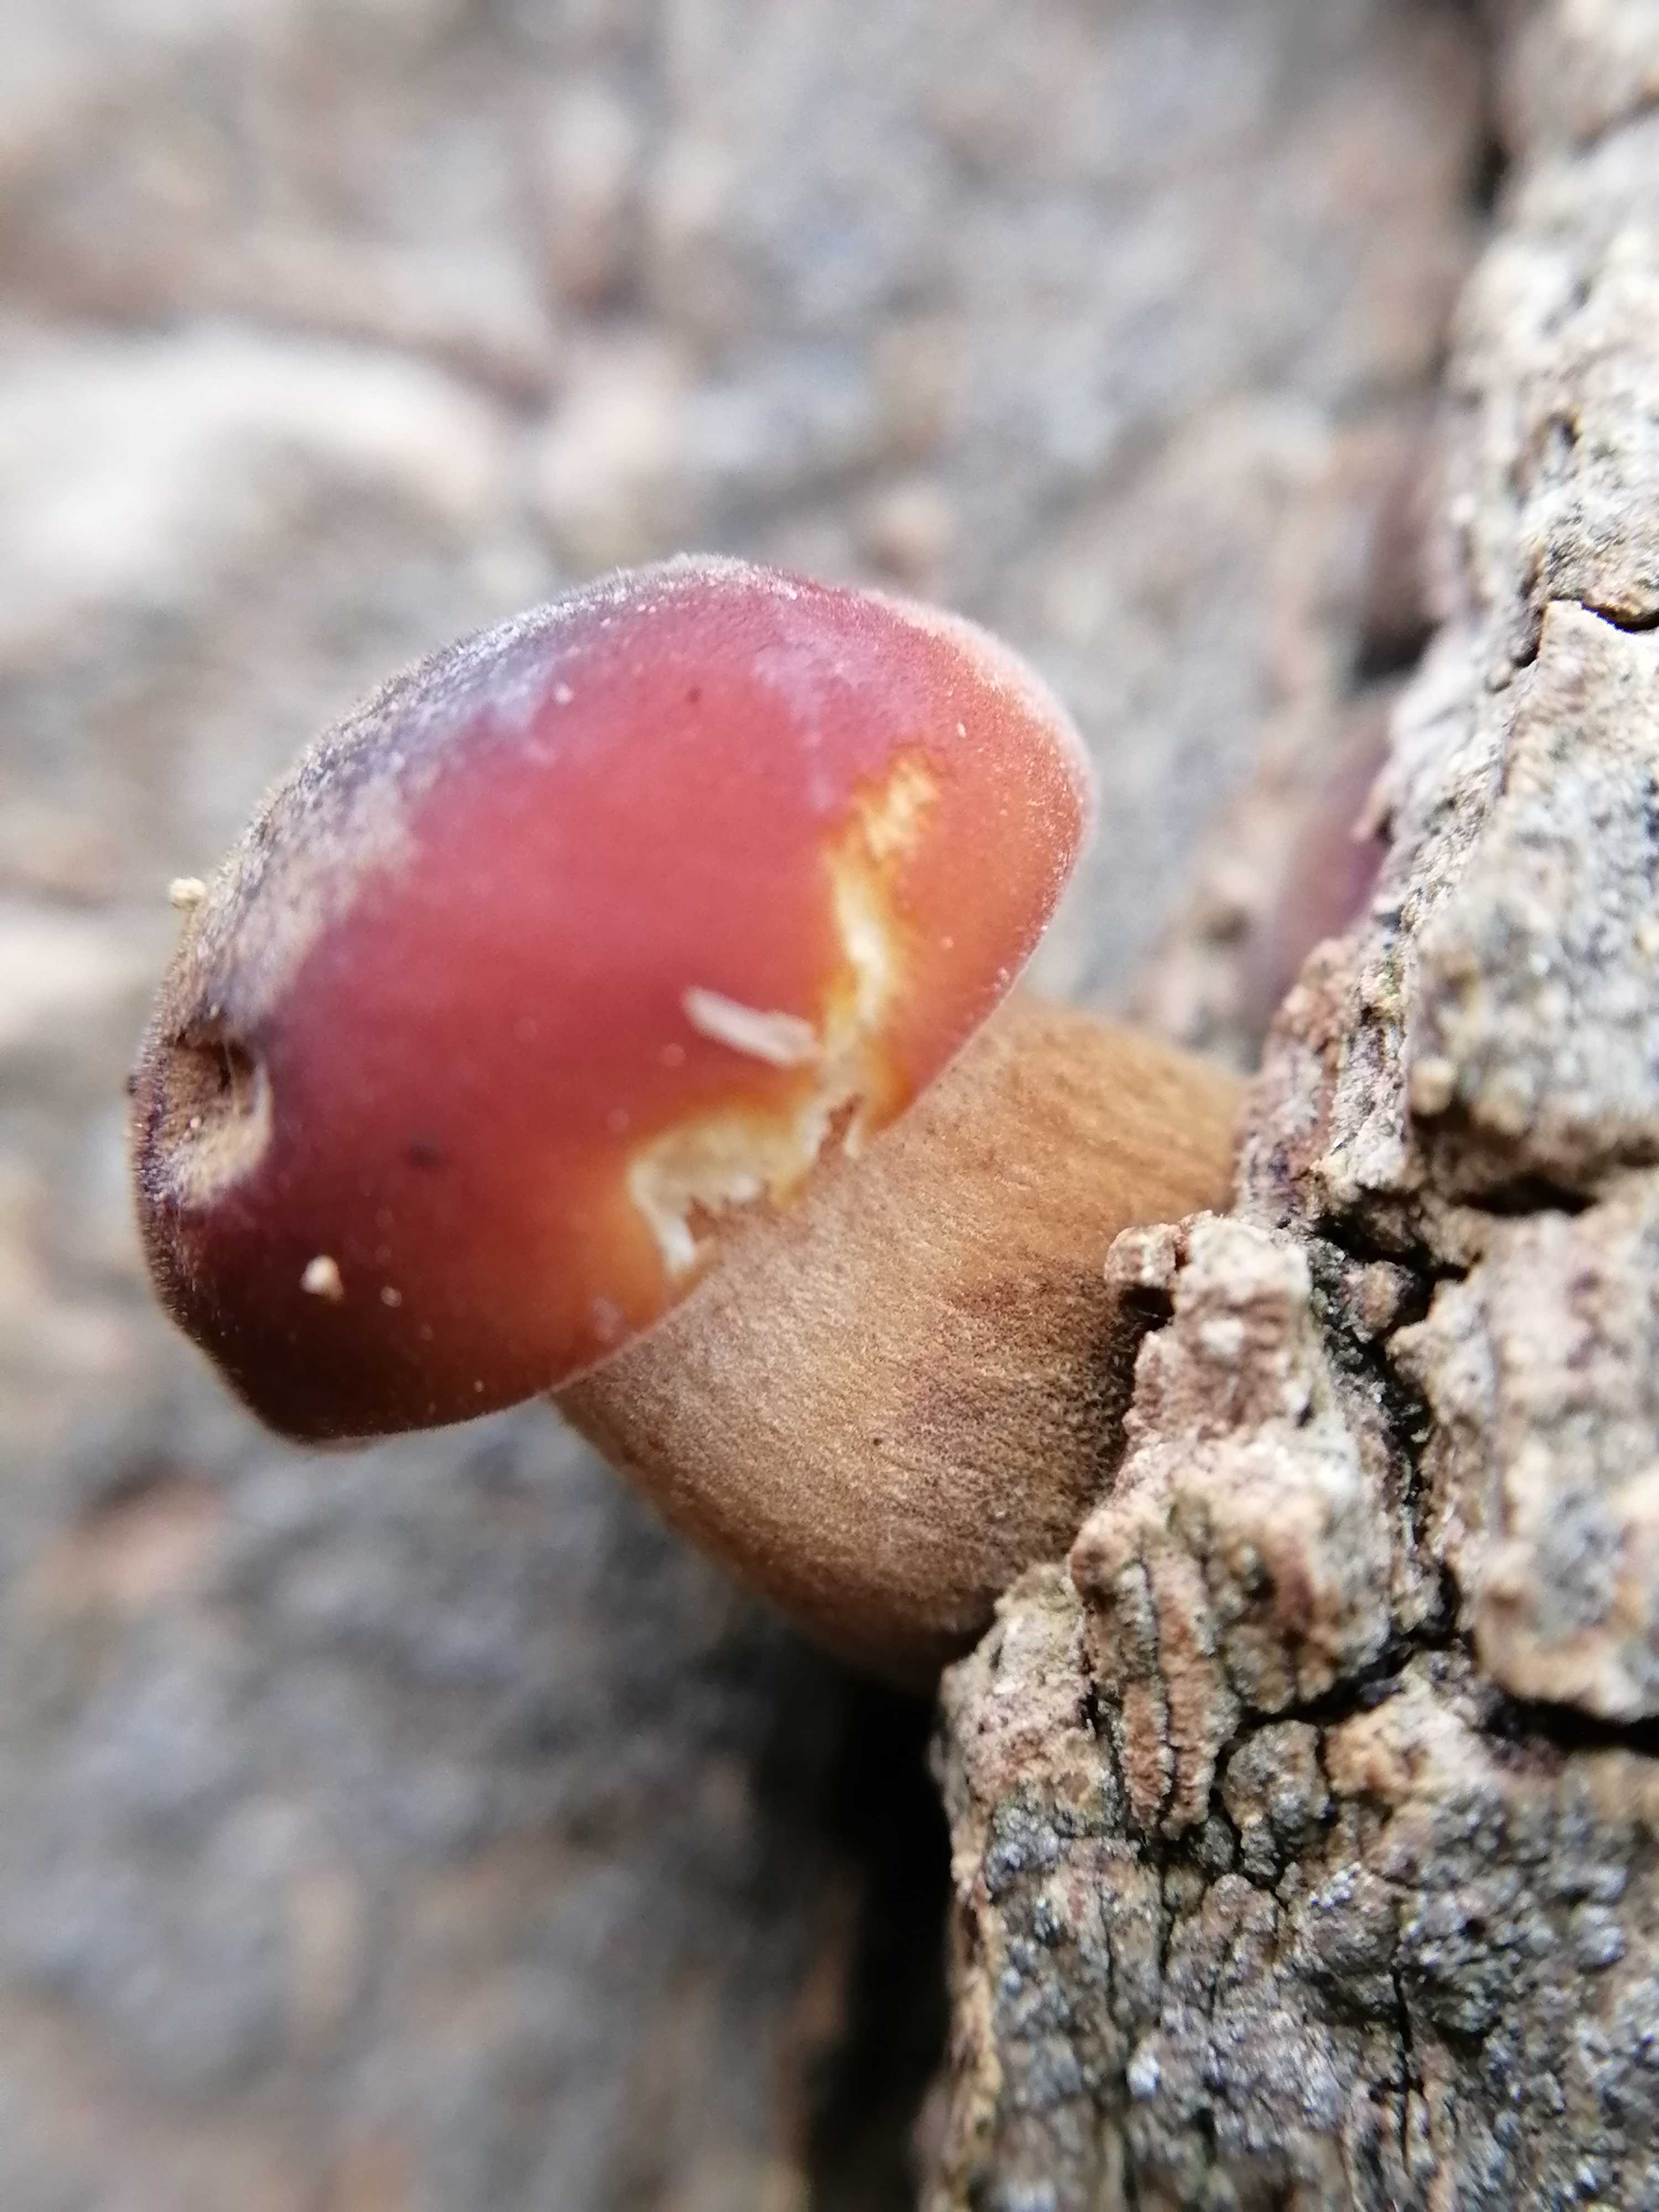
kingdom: Fungi
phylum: Basidiomycota
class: Agaricomycetes
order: Agaricales
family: Physalacriaceae
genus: Flammulina
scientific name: Flammulina velutipes
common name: gul fløjlsfod
